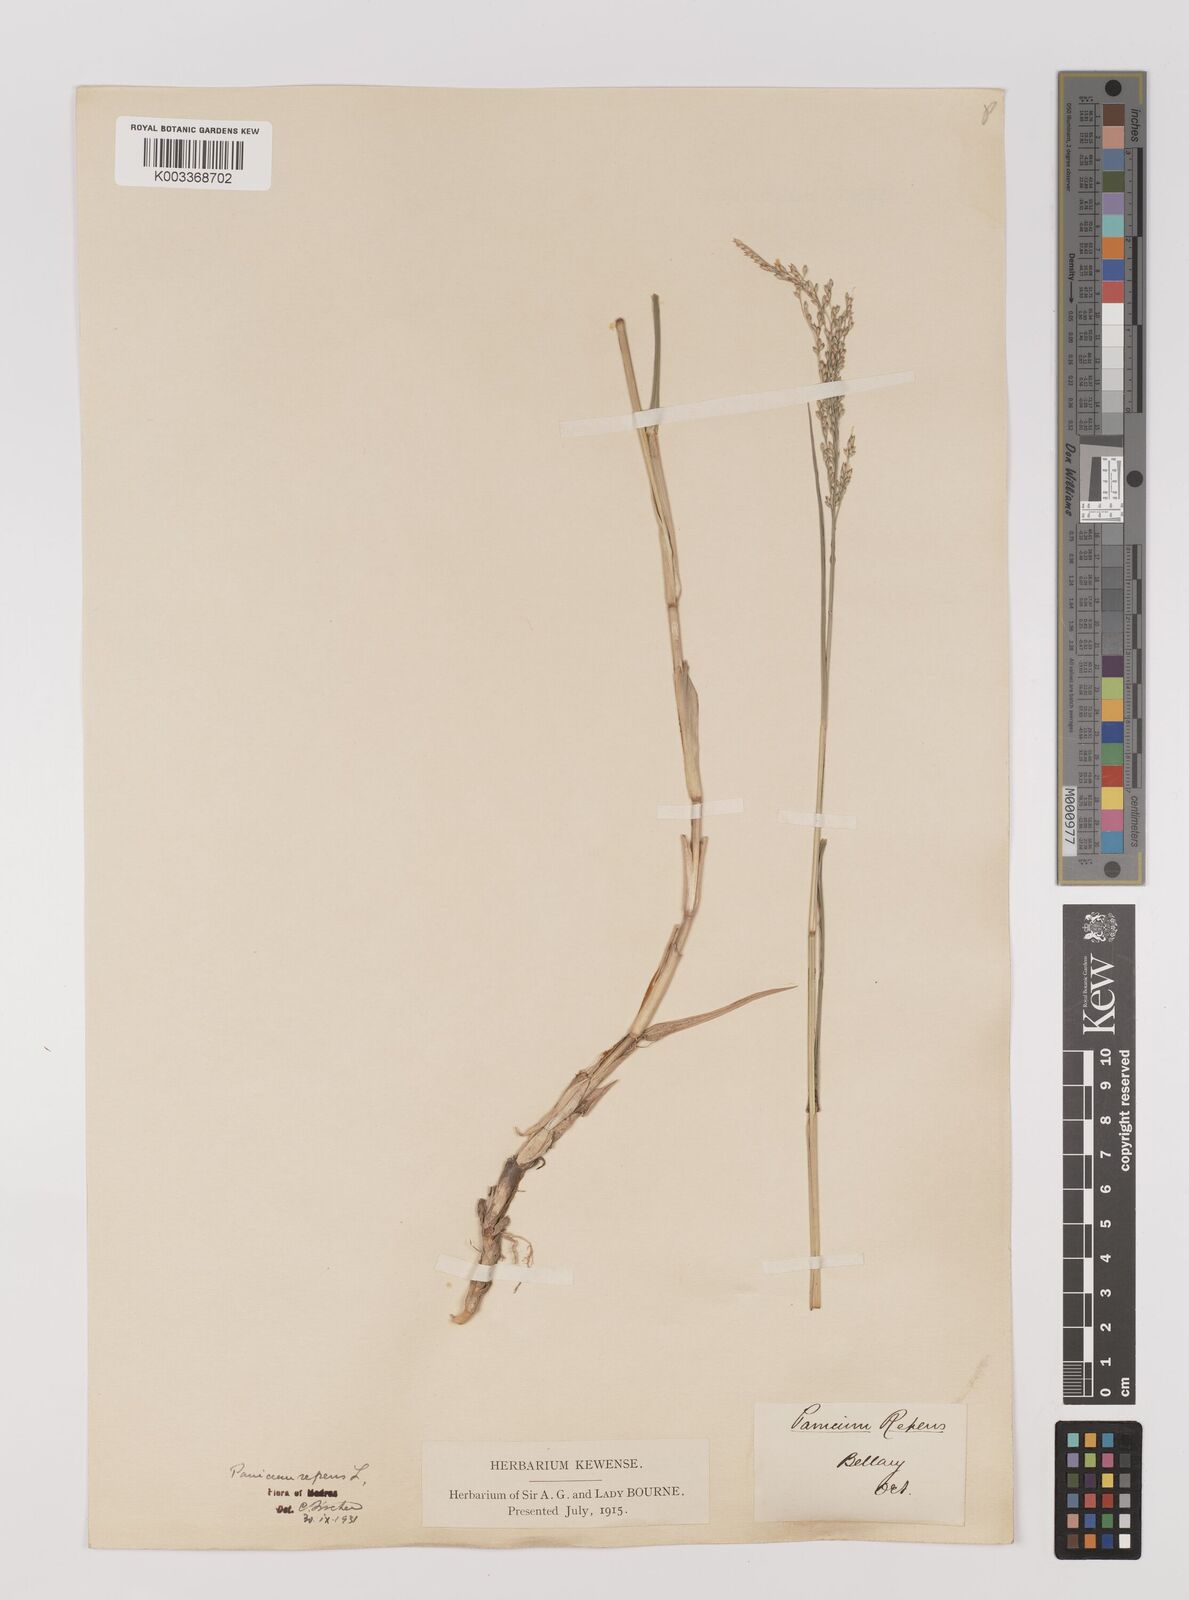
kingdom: Plantae
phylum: Tracheophyta
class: Liliopsida
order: Poales
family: Poaceae
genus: Panicum
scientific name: Panicum repens
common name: Torpedo grass
